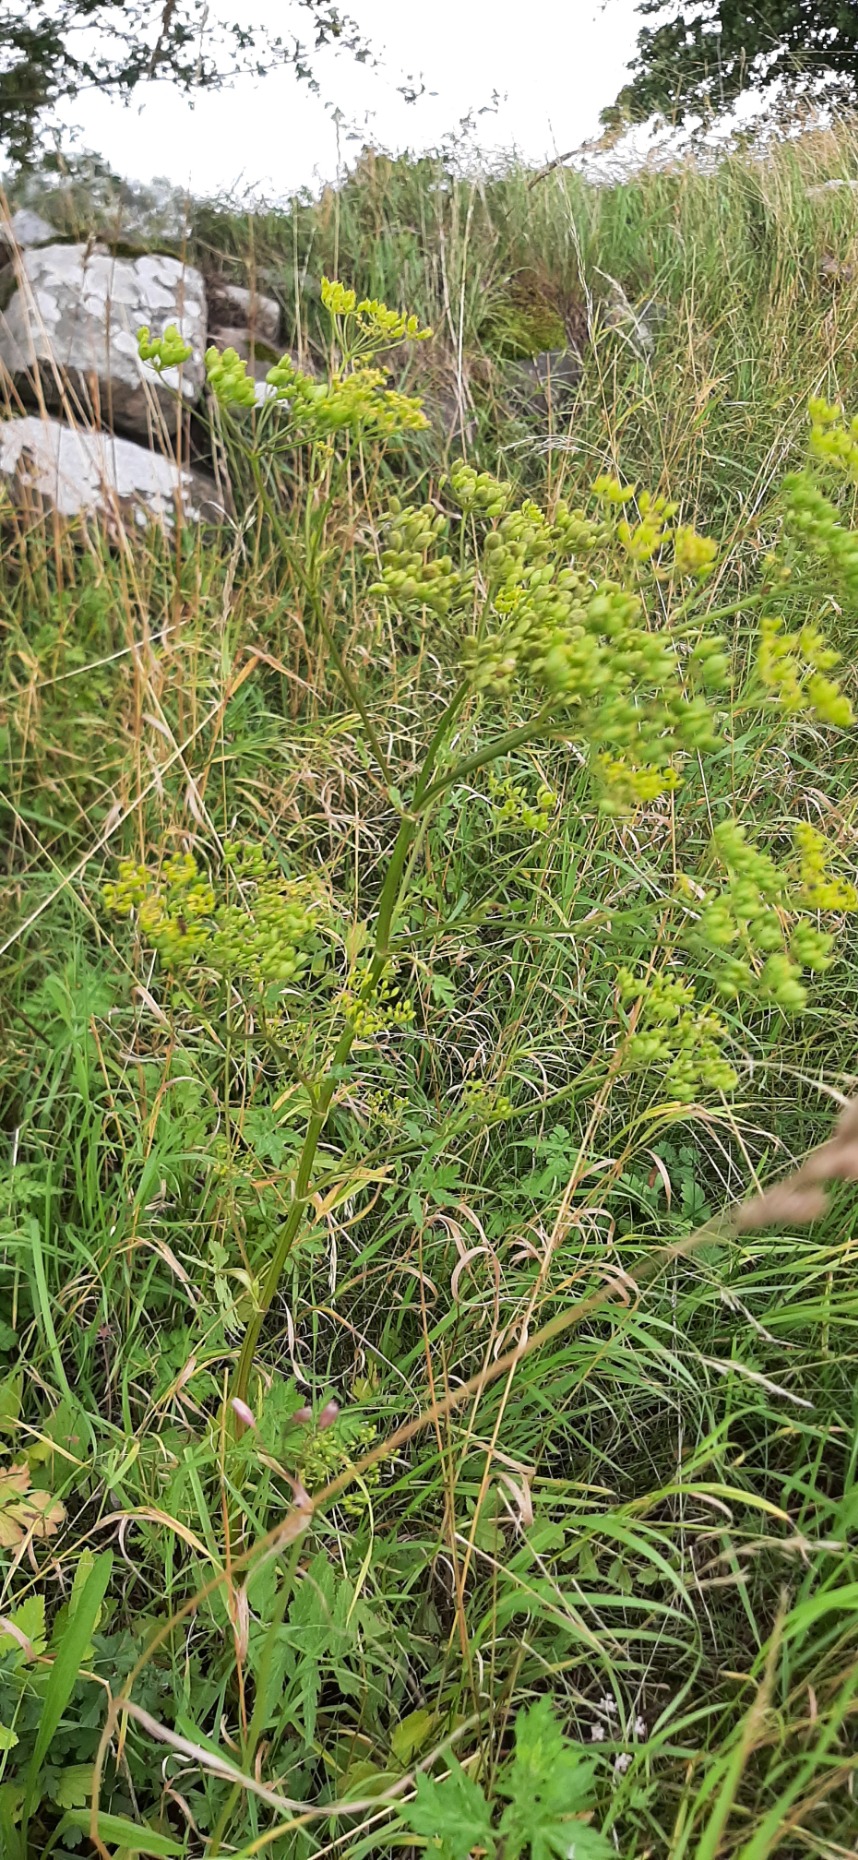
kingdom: Plantae
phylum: Tracheophyta
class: Magnoliopsida
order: Apiales
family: Apiaceae
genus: Pastinaca
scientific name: Pastinaca sativa
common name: Pastinak
